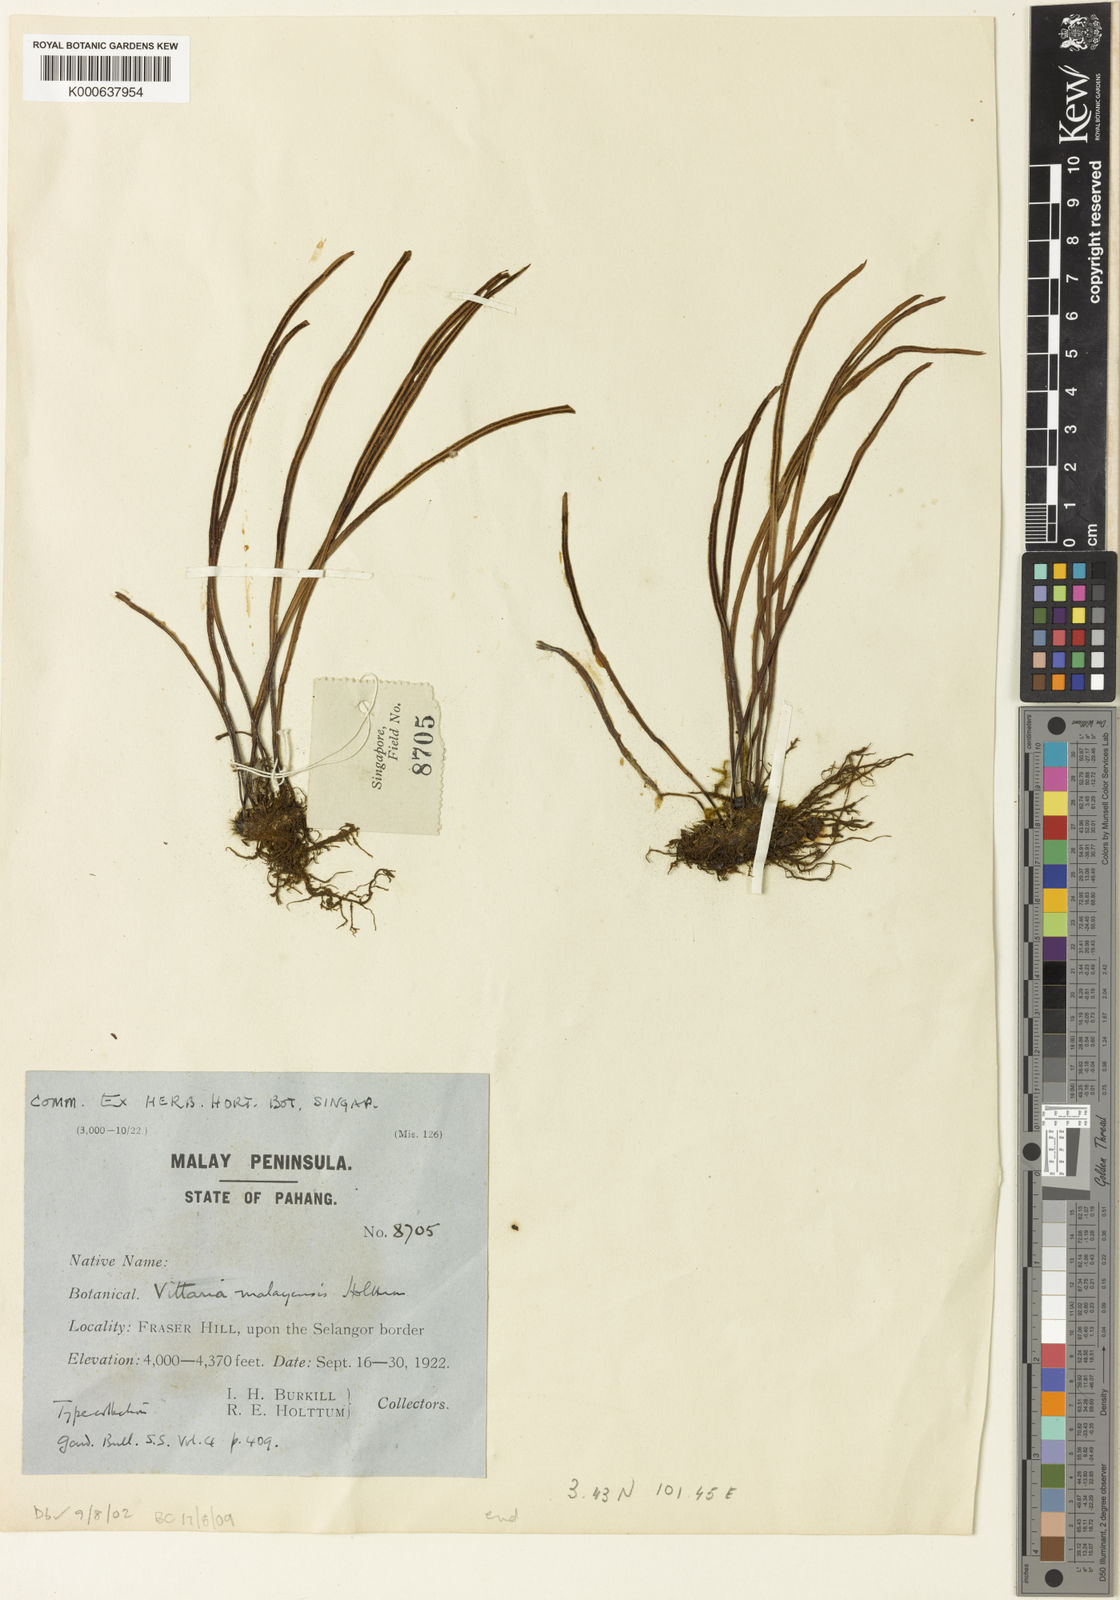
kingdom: Plantae
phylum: Tracheophyta
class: Polypodiopsida
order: Polypodiales
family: Pteridaceae
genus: Haplopteris
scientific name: Haplopteris malayensis
